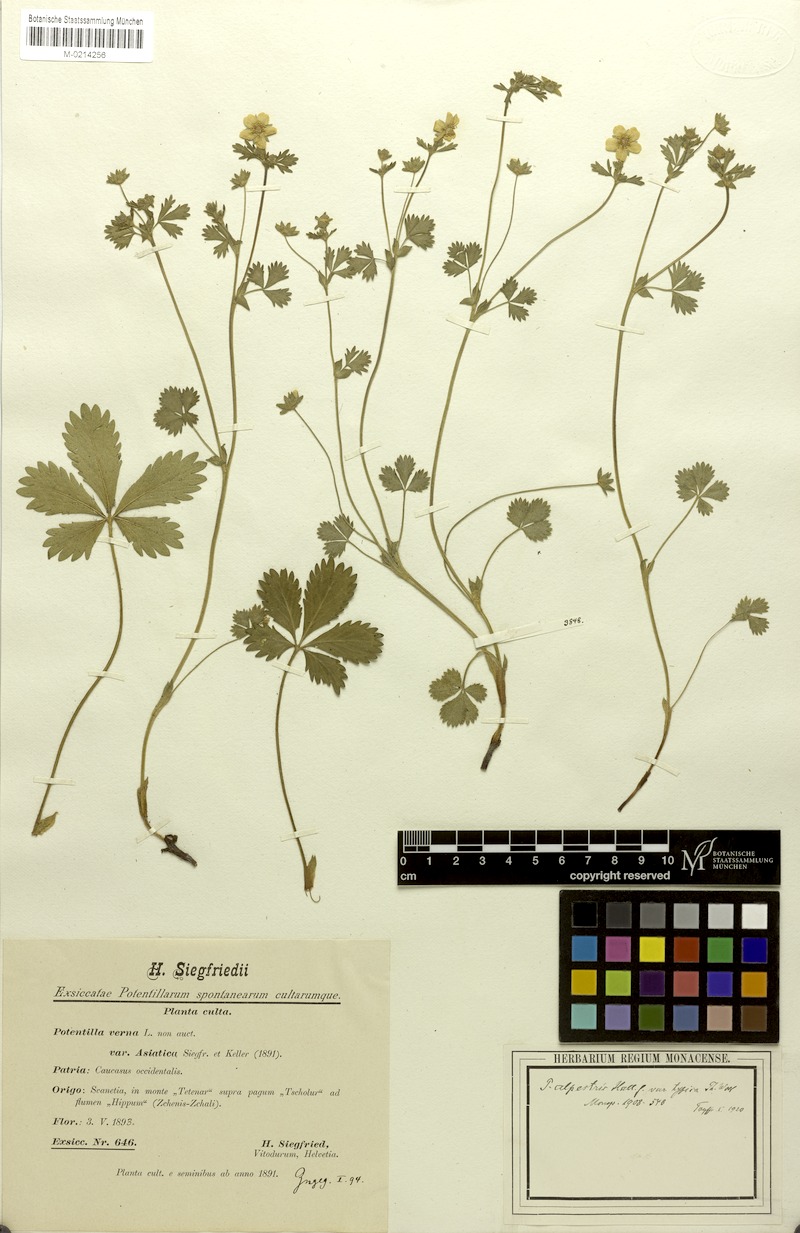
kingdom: Plantae
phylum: Tracheophyta
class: Magnoliopsida
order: Rosales
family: Rosaceae
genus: Potentilla
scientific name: Potentilla crantzii
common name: Alpine cinquefoil
